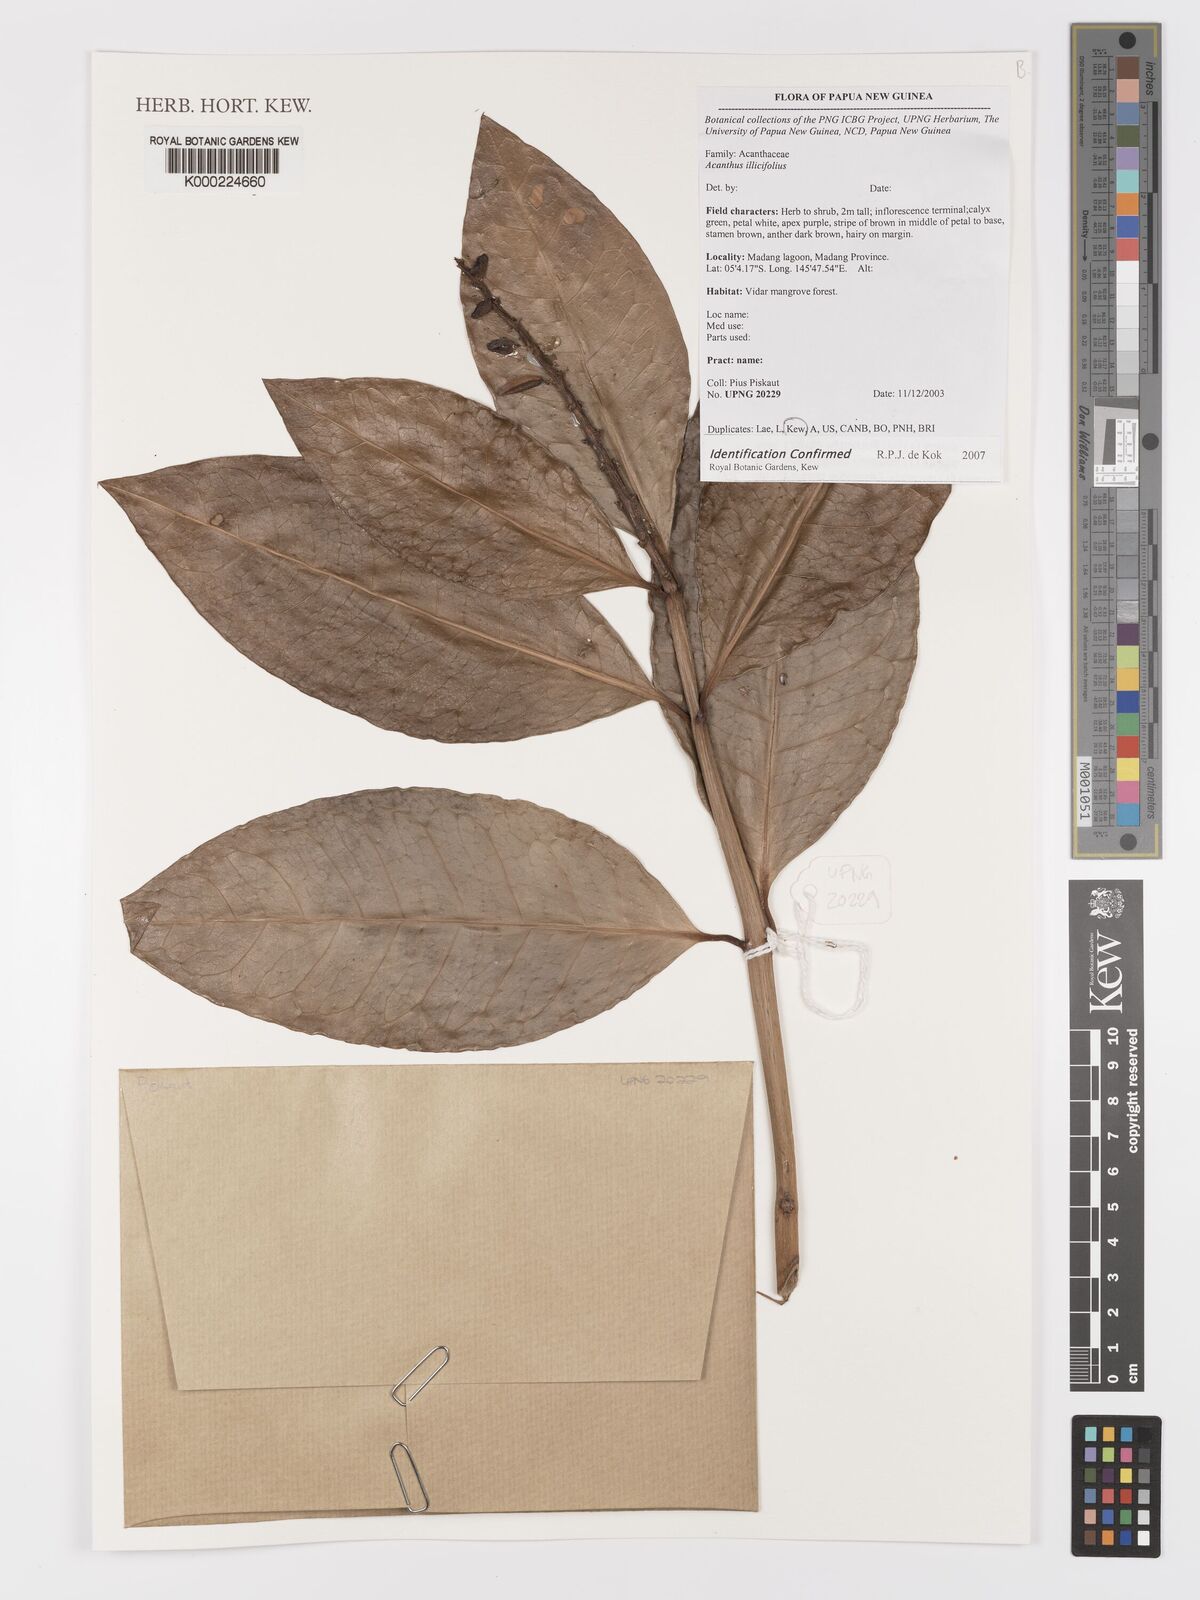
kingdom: Plantae
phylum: Tracheophyta
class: Magnoliopsida
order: Lamiales
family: Acanthaceae
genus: Acanthus
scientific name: Acanthus ilicifolius
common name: Holy mangrove
